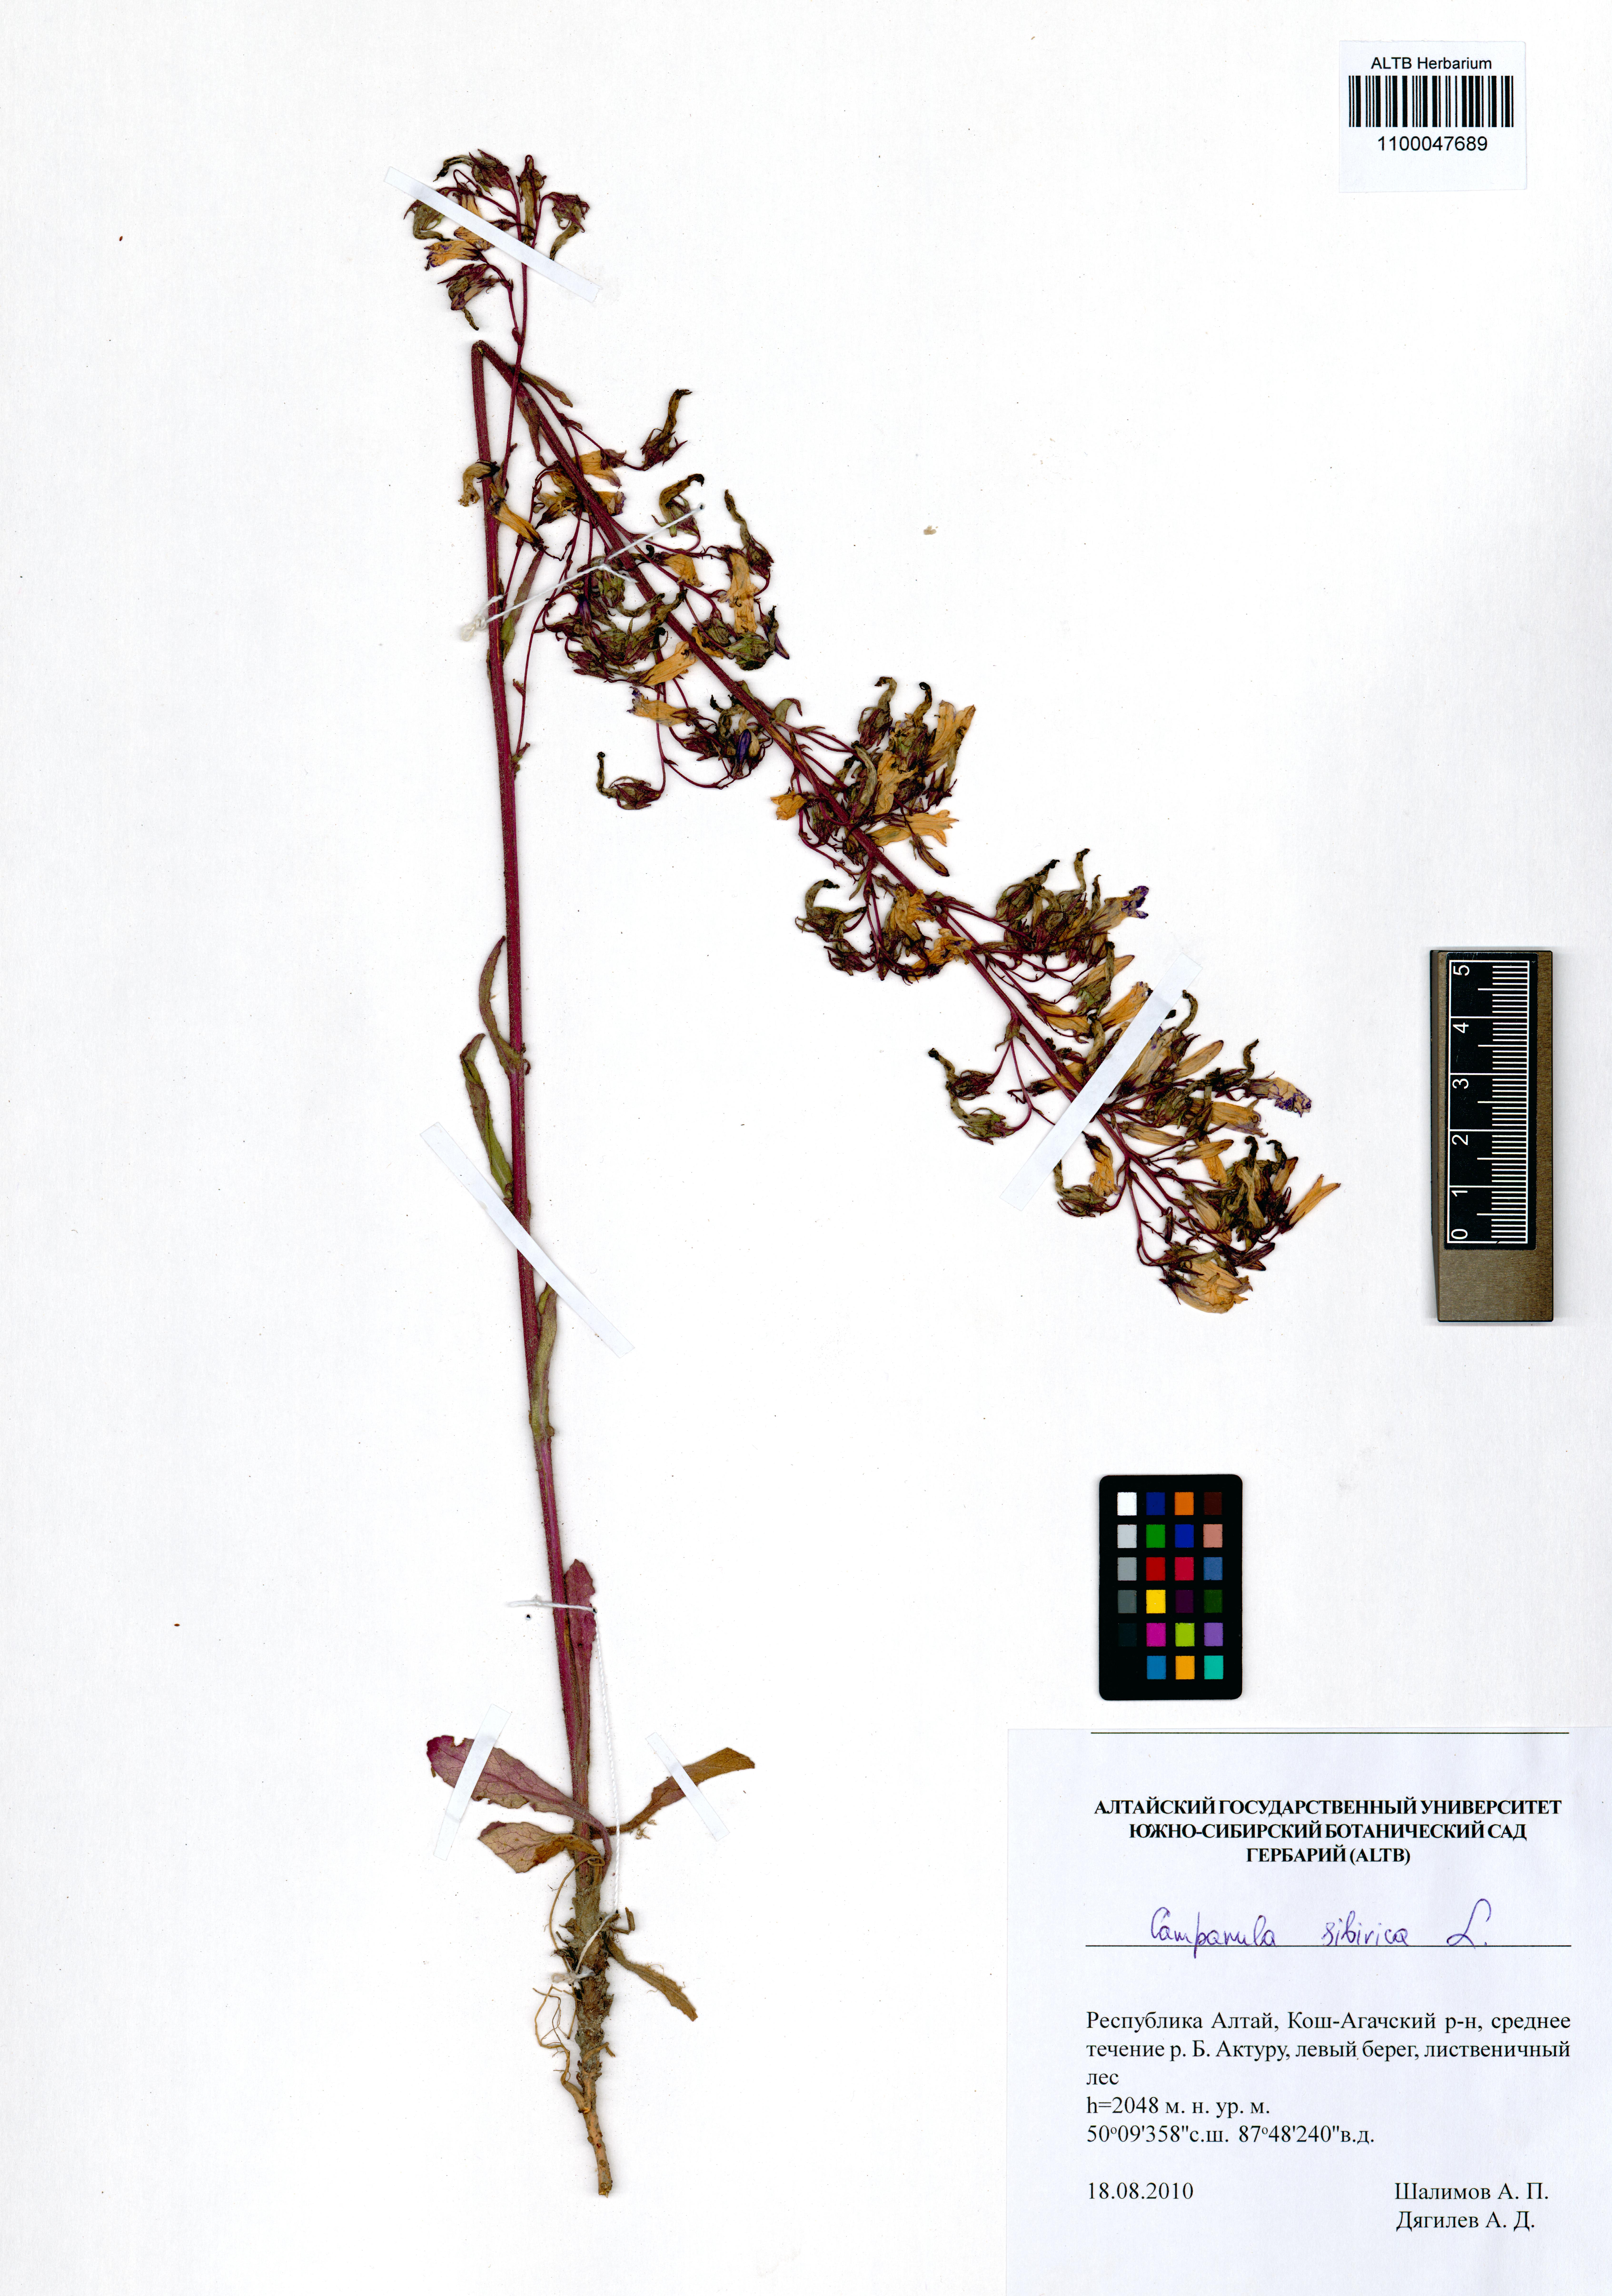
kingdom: Plantae
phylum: Tracheophyta
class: Magnoliopsida
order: Asterales
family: Campanulaceae
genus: Campanula
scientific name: Campanula sibirica
